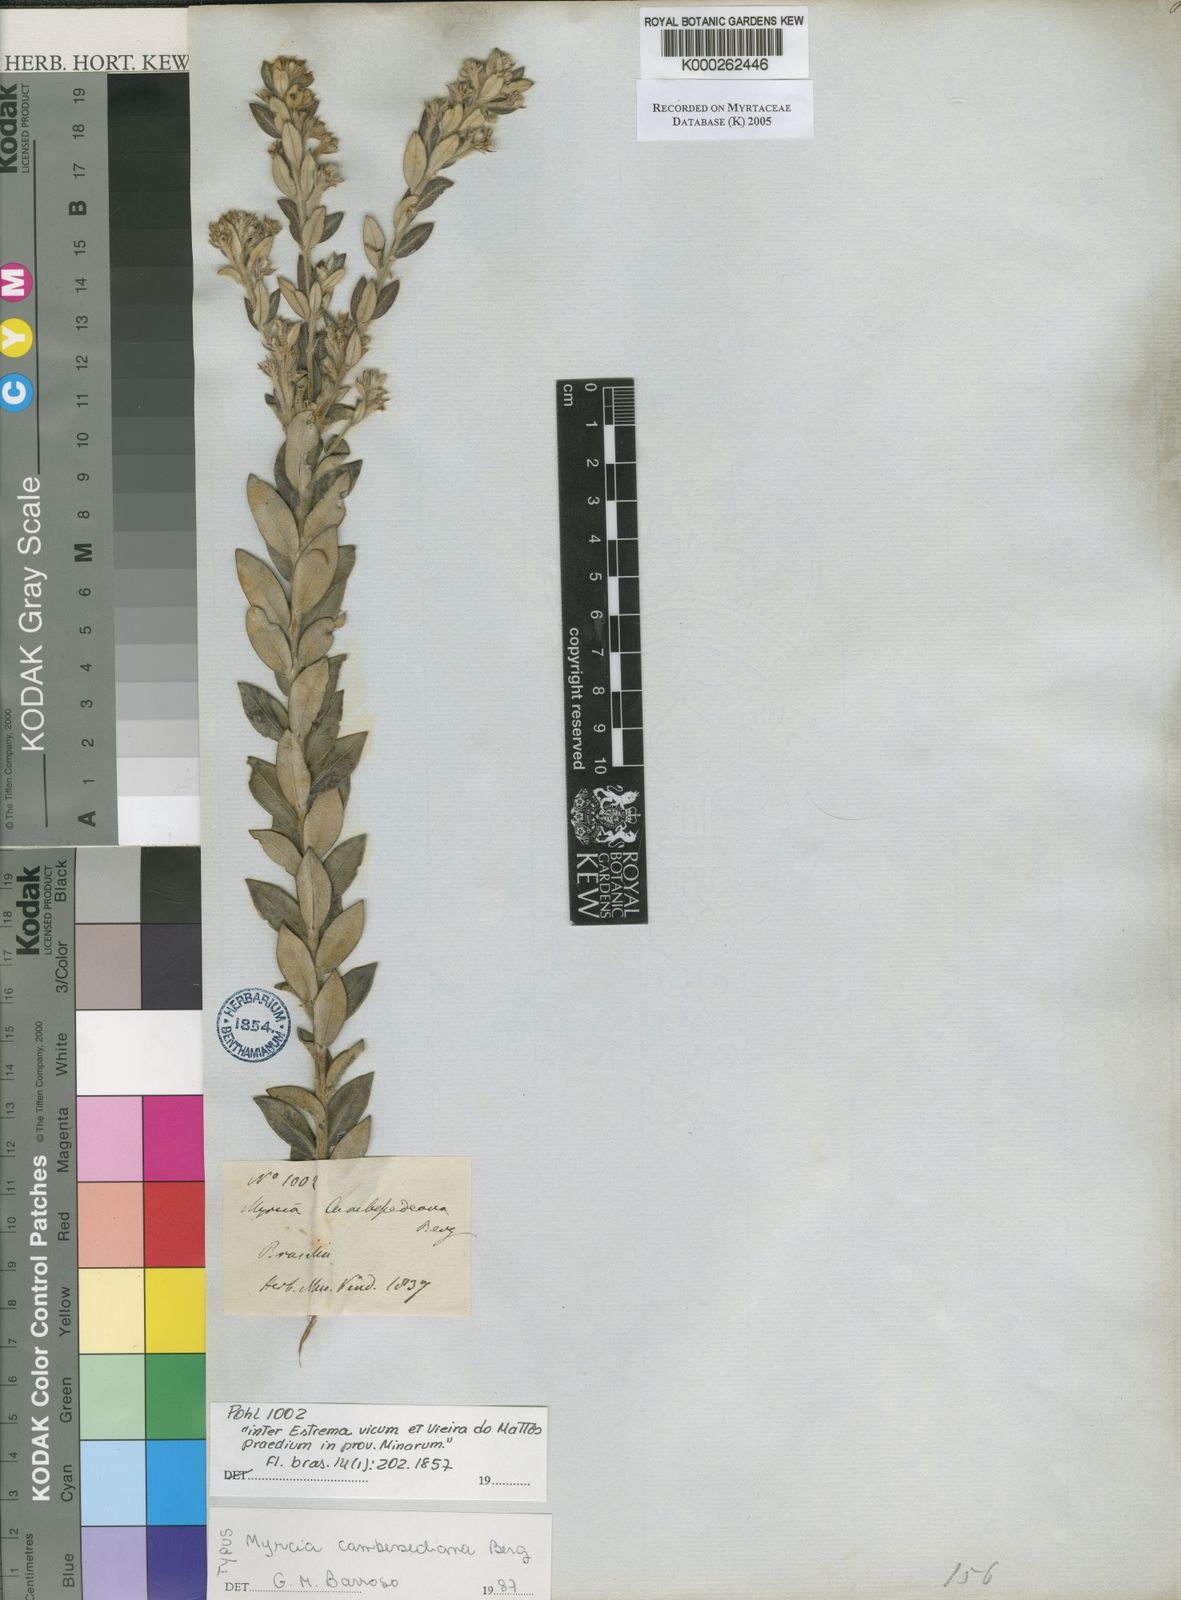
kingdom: Plantae
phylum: Tracheophyta
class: Magnoliopsida
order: Myrtales
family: Myrtaceae
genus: Myrcia
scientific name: Myrcia
